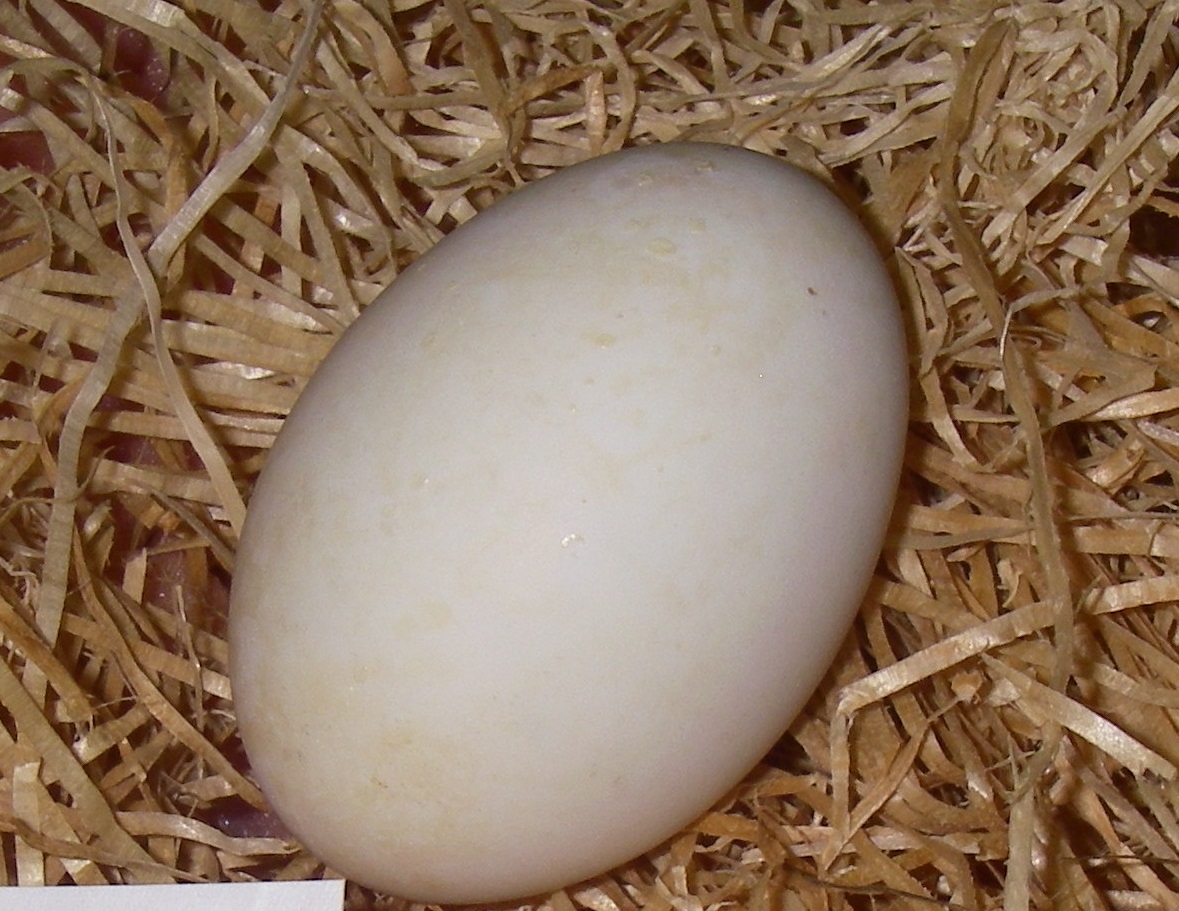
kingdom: Animalia
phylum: Chordata
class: Aves
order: Anseriformes
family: Anatidae
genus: Anser
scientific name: Anser fabalis
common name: Bean goose
